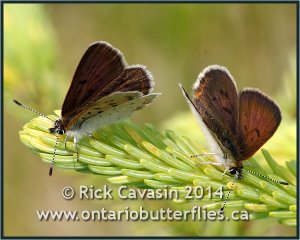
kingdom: Animalia
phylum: Arthropoda
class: Insecta
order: Lepidoptera
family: Sesiidae
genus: Sesia
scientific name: Sesia Lycaena epixanthe
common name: Bog Copper
